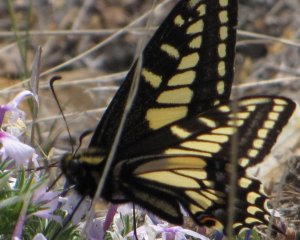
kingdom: Animalia
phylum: Arthropoda
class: Insecta
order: Lepidoptera
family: Papilionidae
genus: Papilio
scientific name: Papilio zelicaon
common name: Anise Swallowtail
